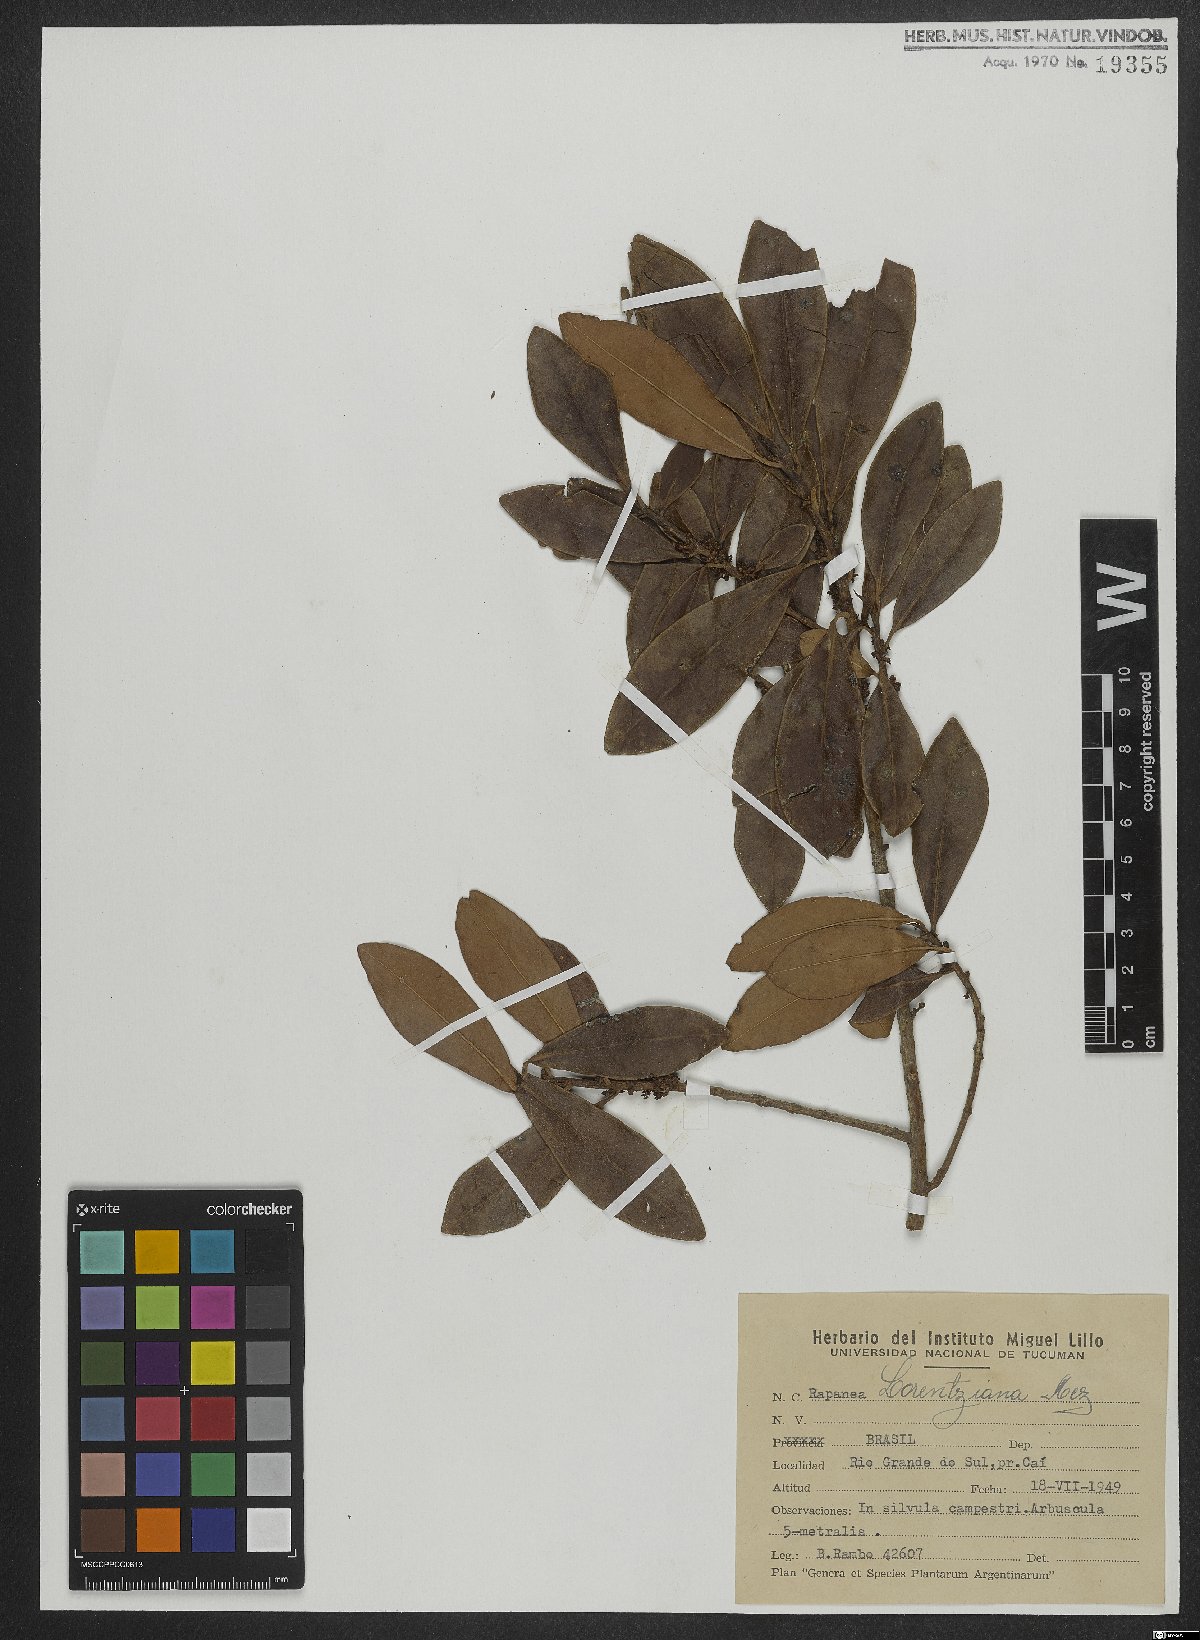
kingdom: Plantae
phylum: Tracheophyta
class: Magnoliopsida
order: Ericales
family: Primulaceae
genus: Myrsine
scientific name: Myrsine lorentziana
